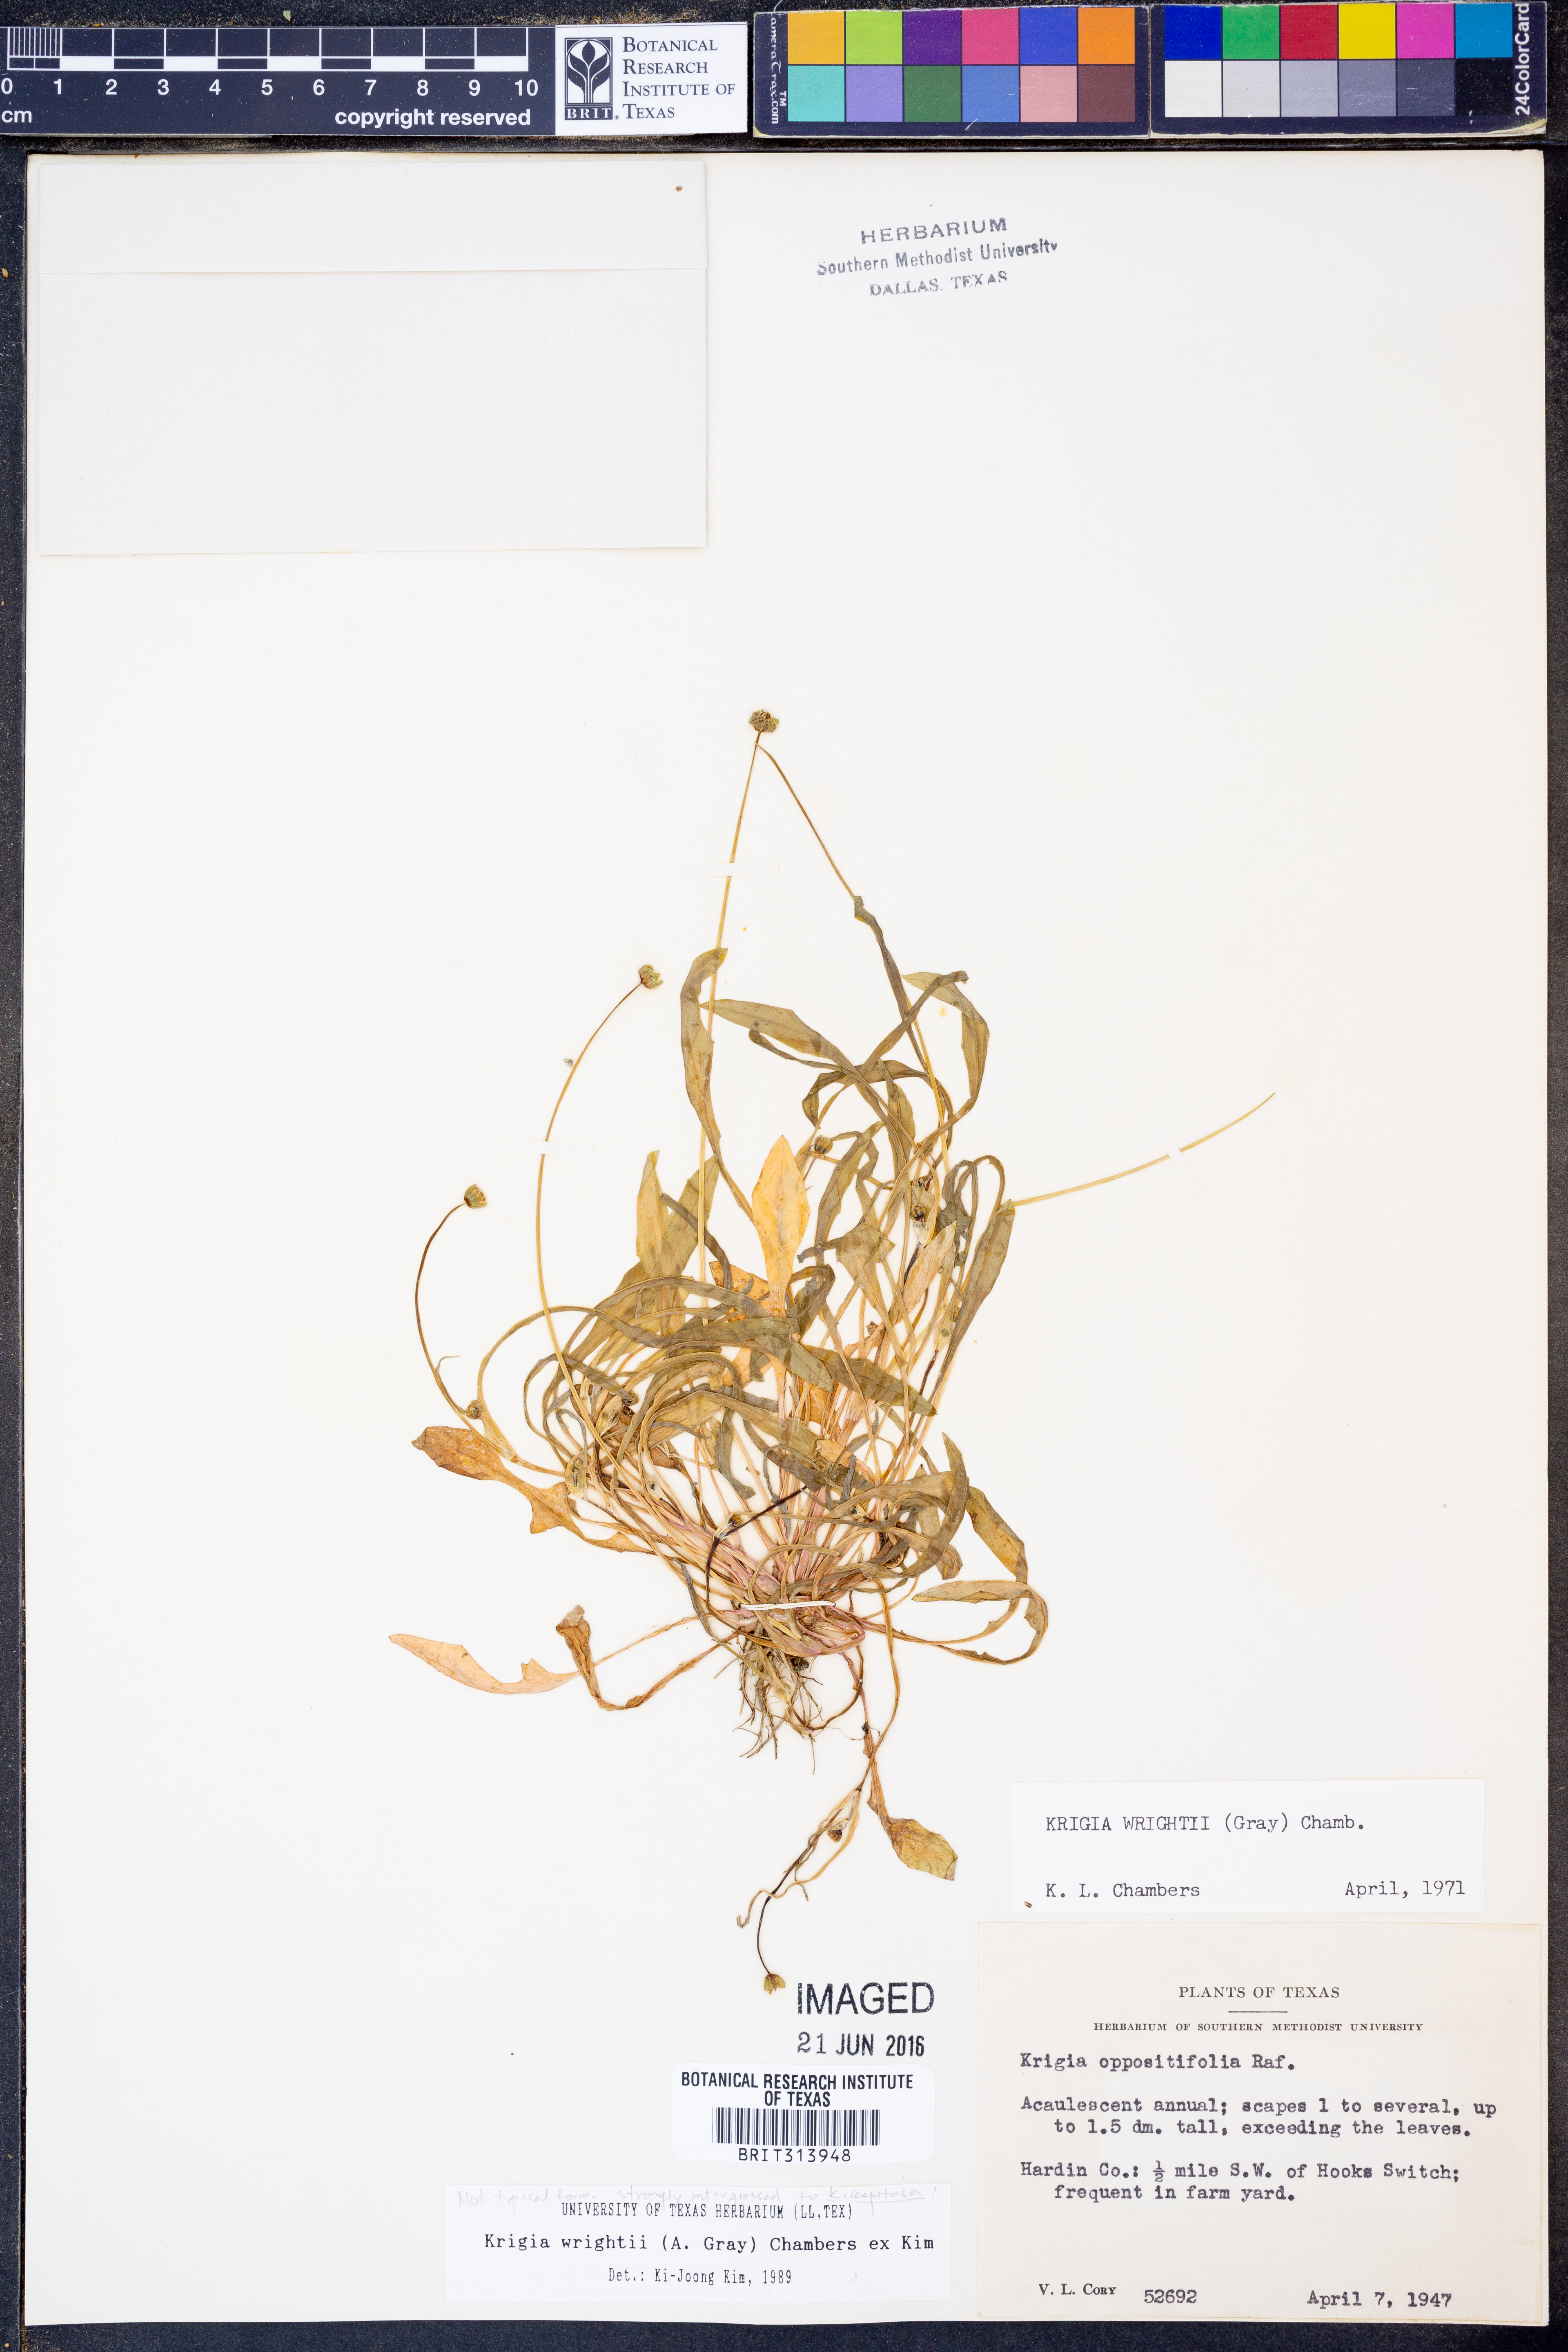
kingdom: Plantae
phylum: Tracheophyta
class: Magnoliopsida
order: Asterales
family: Asteraceae
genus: Krigia
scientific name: Krigia wrightii
